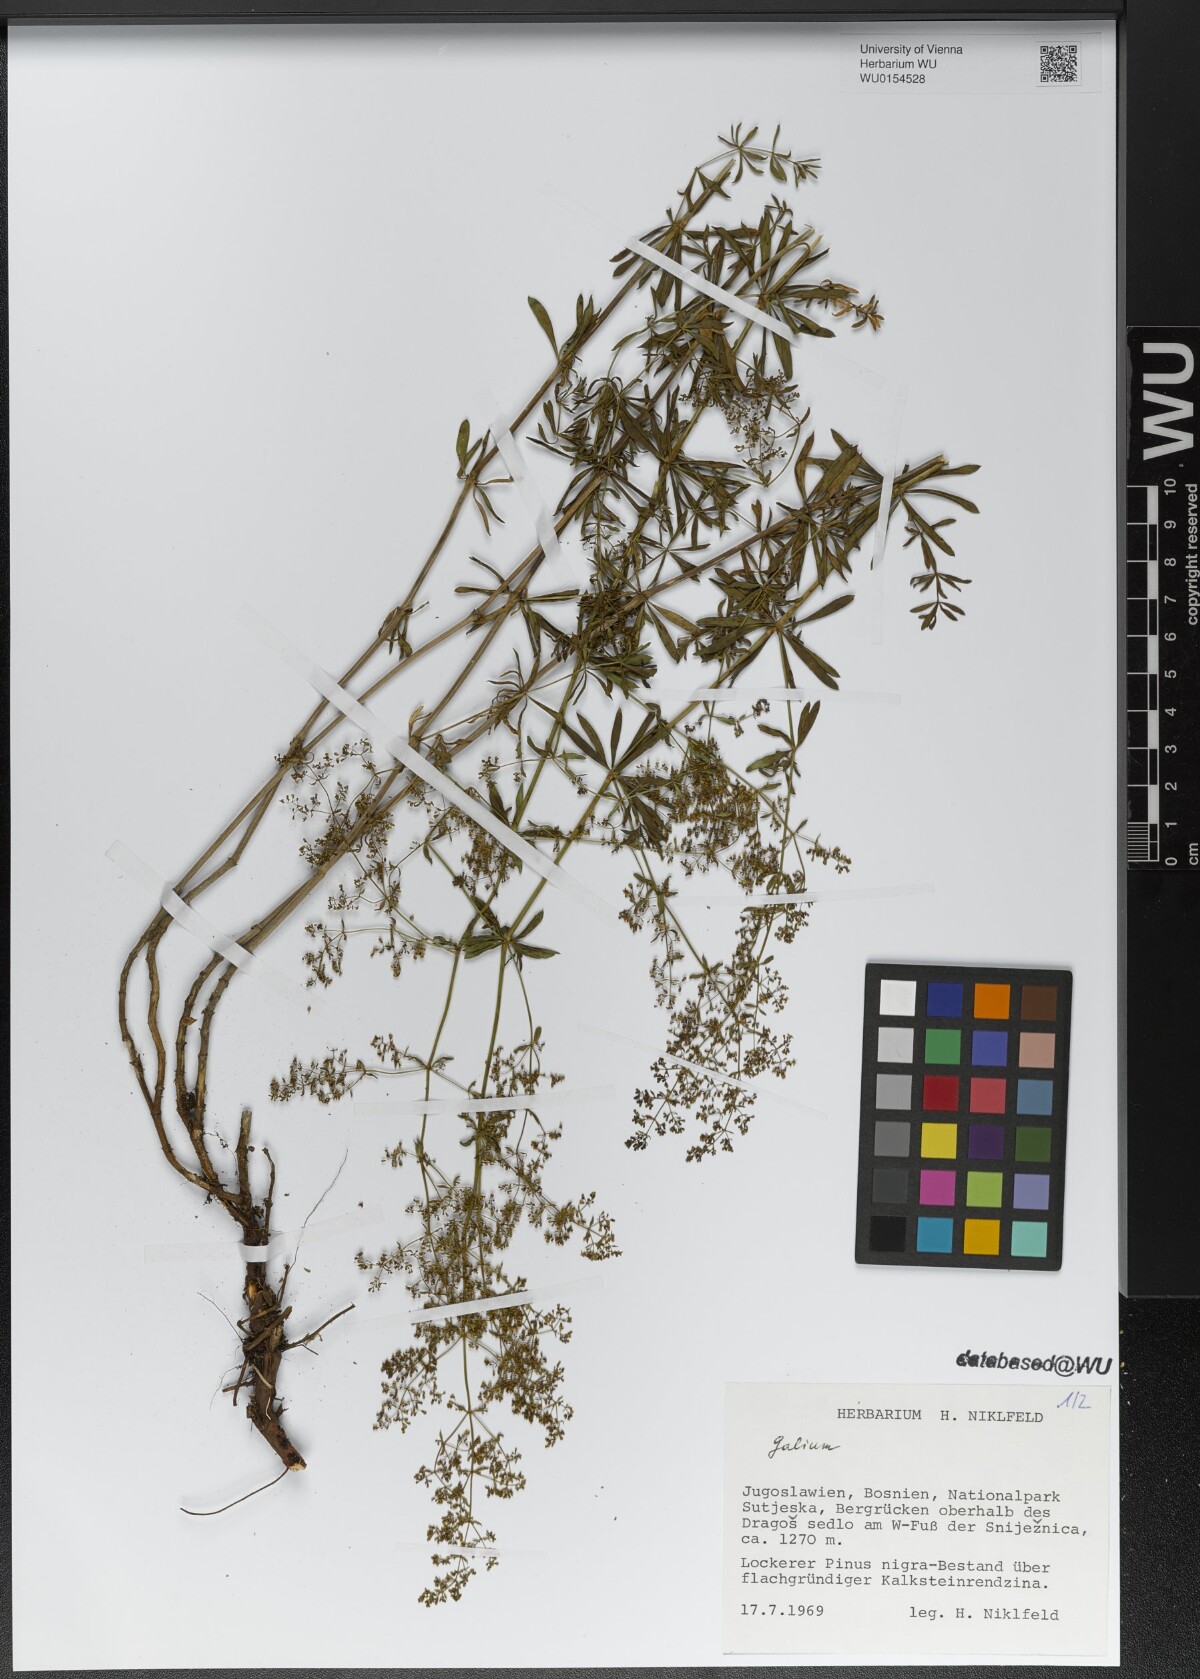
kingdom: Plantae
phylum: Tracheophyta
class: Magnoliopsida
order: Gentianales
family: Rubiaceae
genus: Galium
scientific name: Galium
